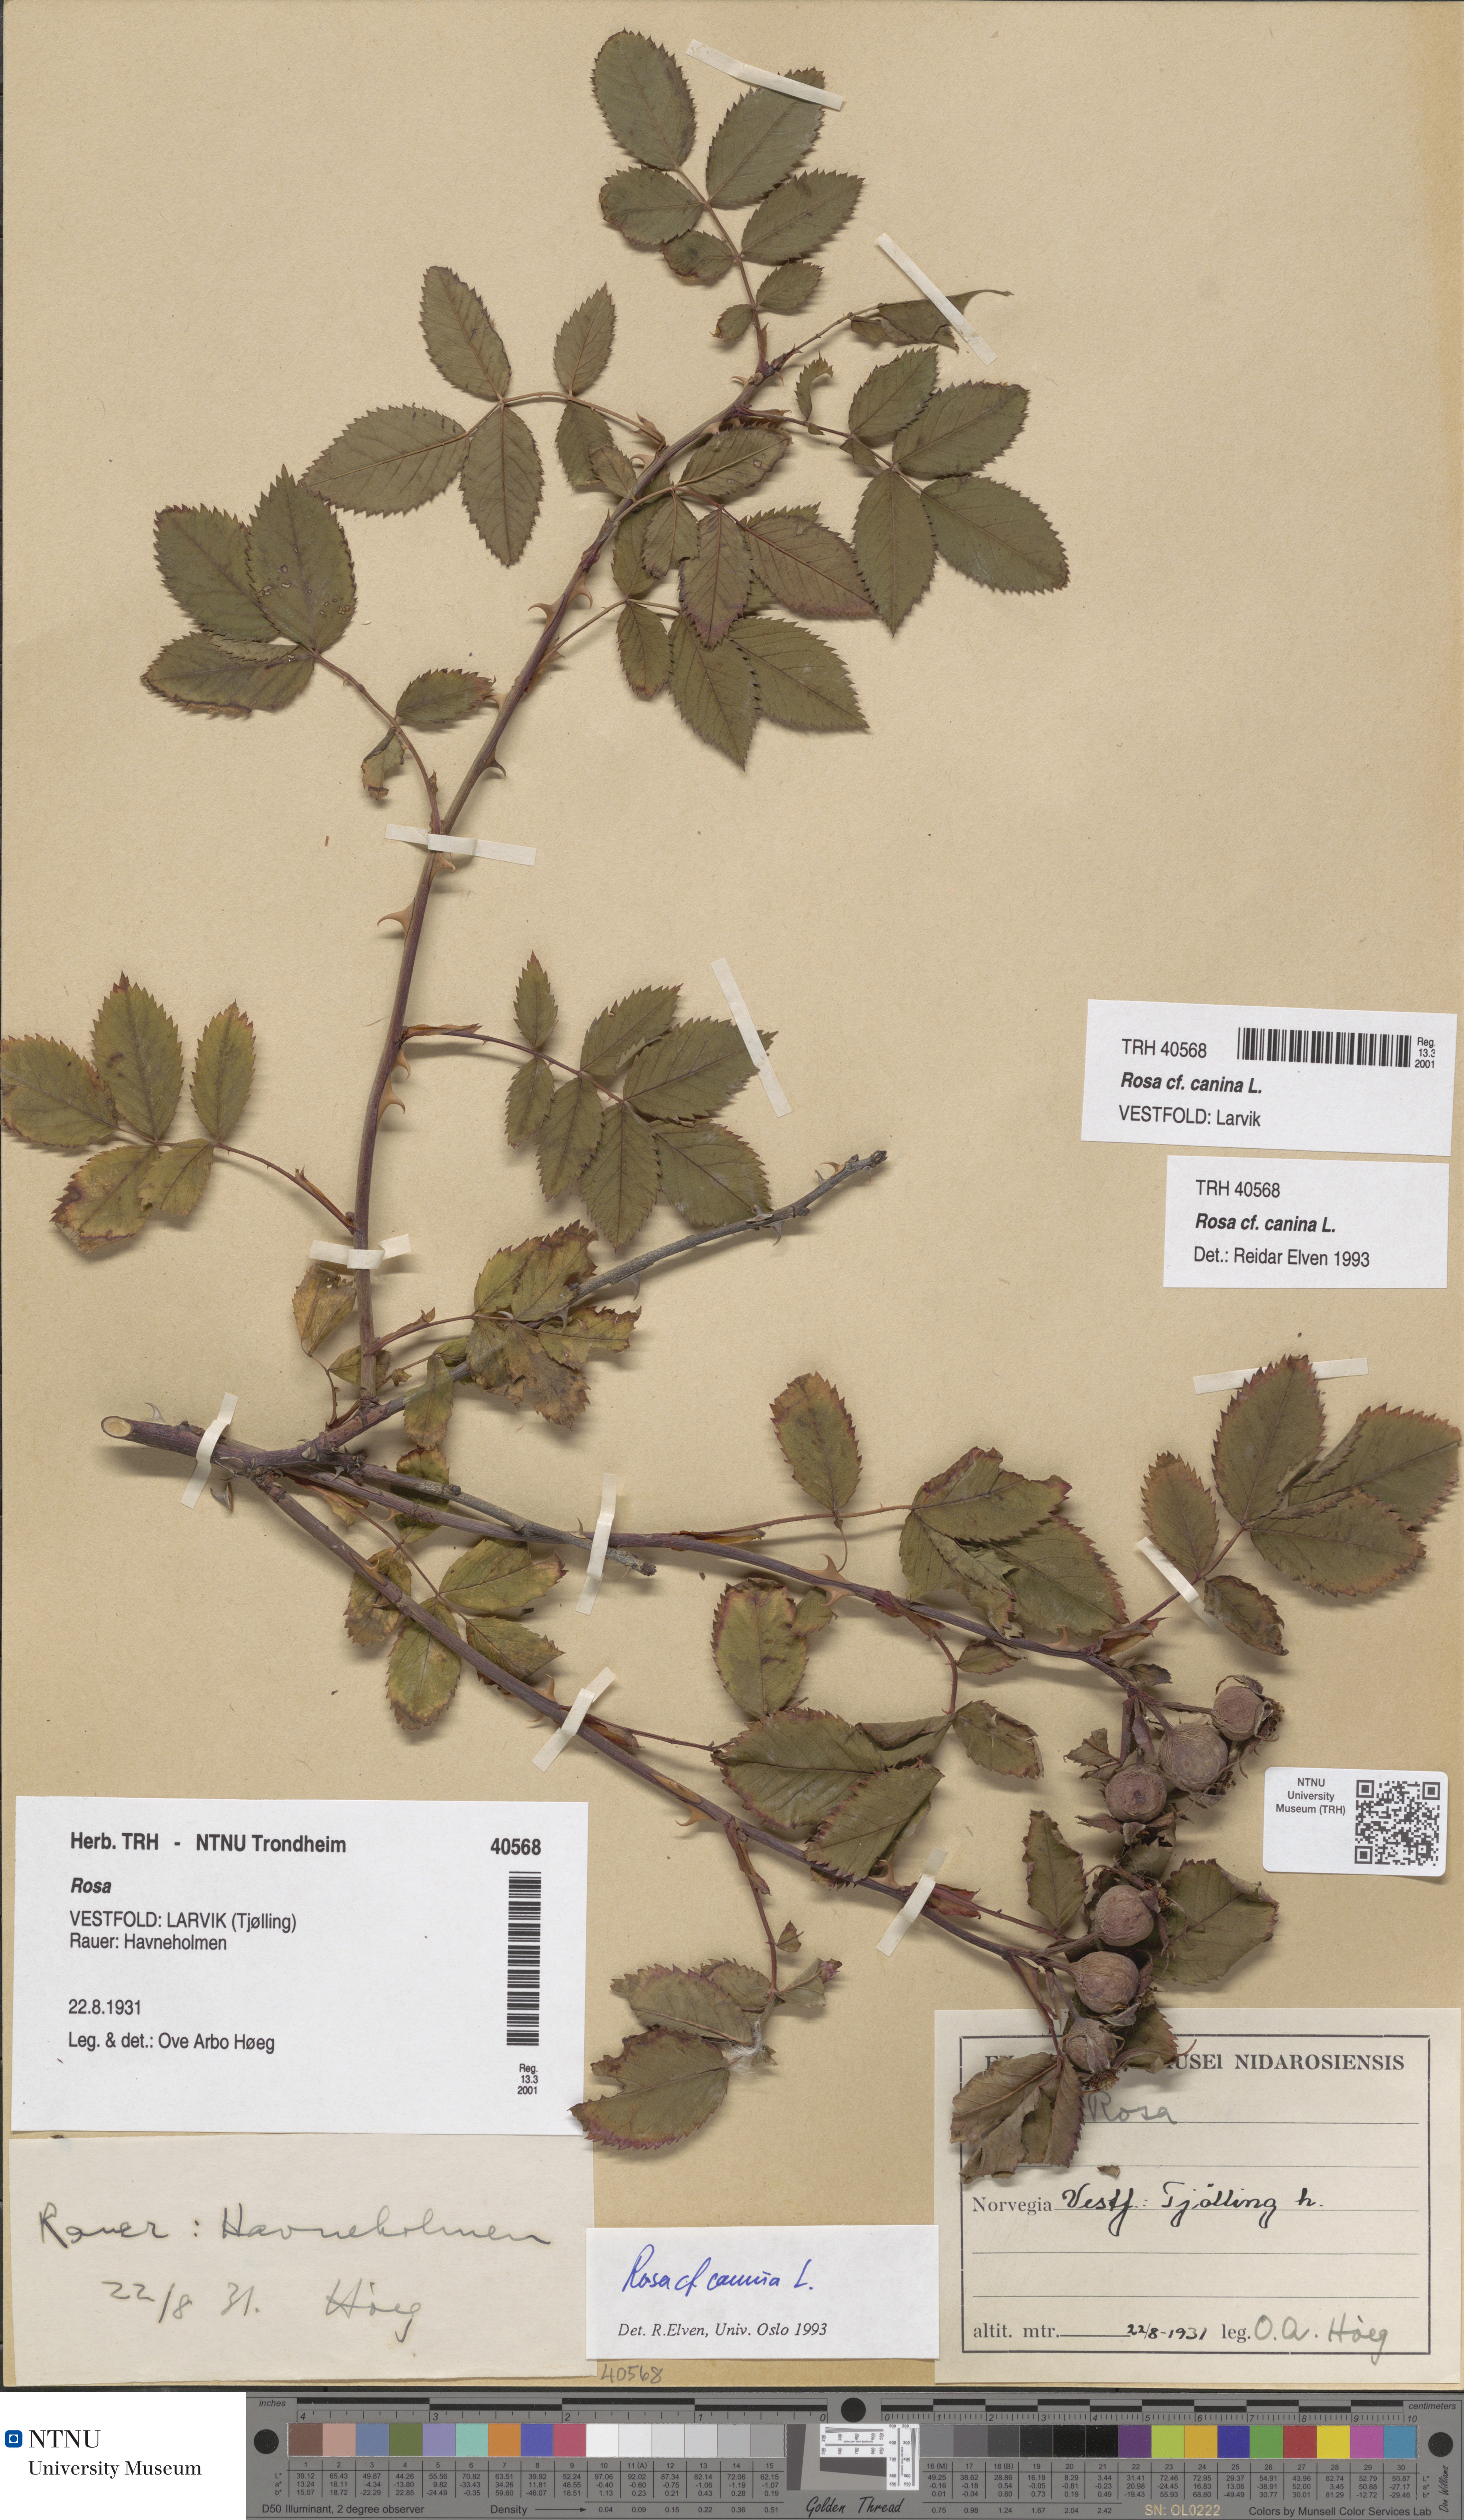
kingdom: Plantae
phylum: Tracheophyta
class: Magnoliopsida
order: Rosales
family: Rosaceae
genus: Rosa
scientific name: Rosa canina
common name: Dog rose
